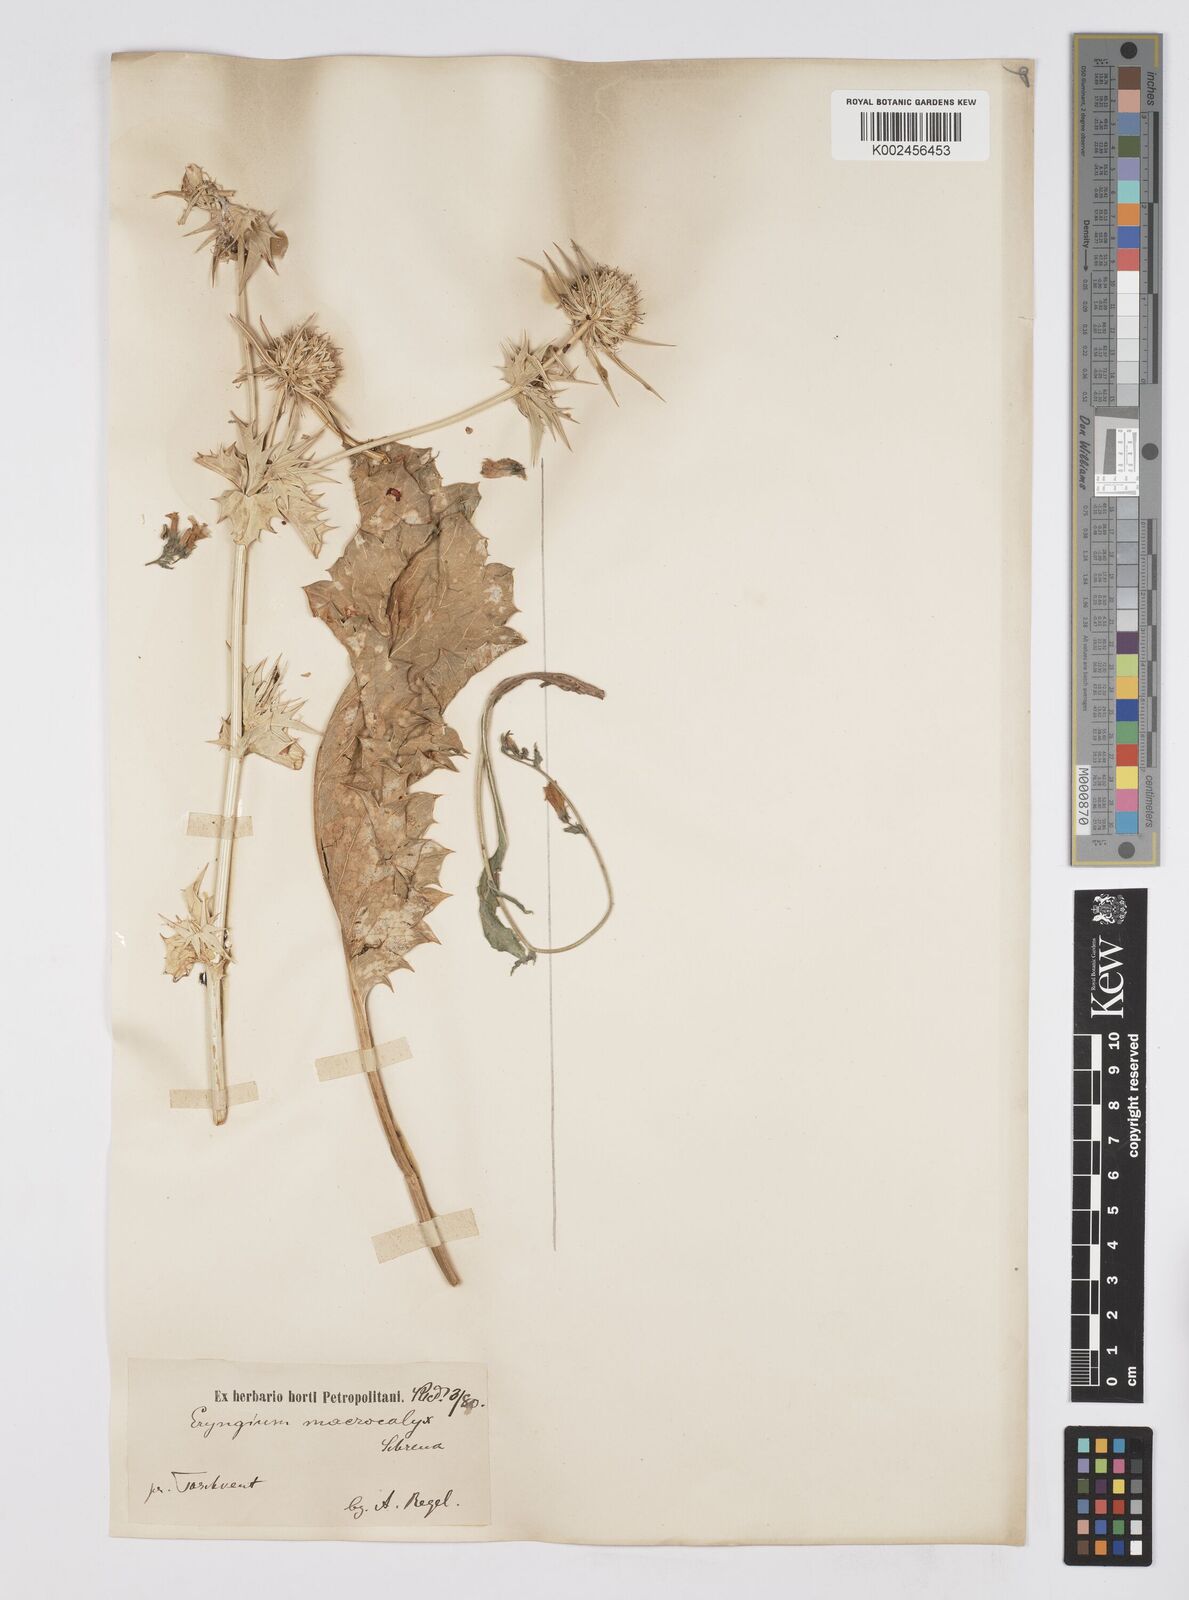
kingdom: Plantae
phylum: Tracheophyta
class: Magnoliopsida
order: Apiales
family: Apiaceae
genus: Eryngium
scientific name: Eryngium macrocalyx
